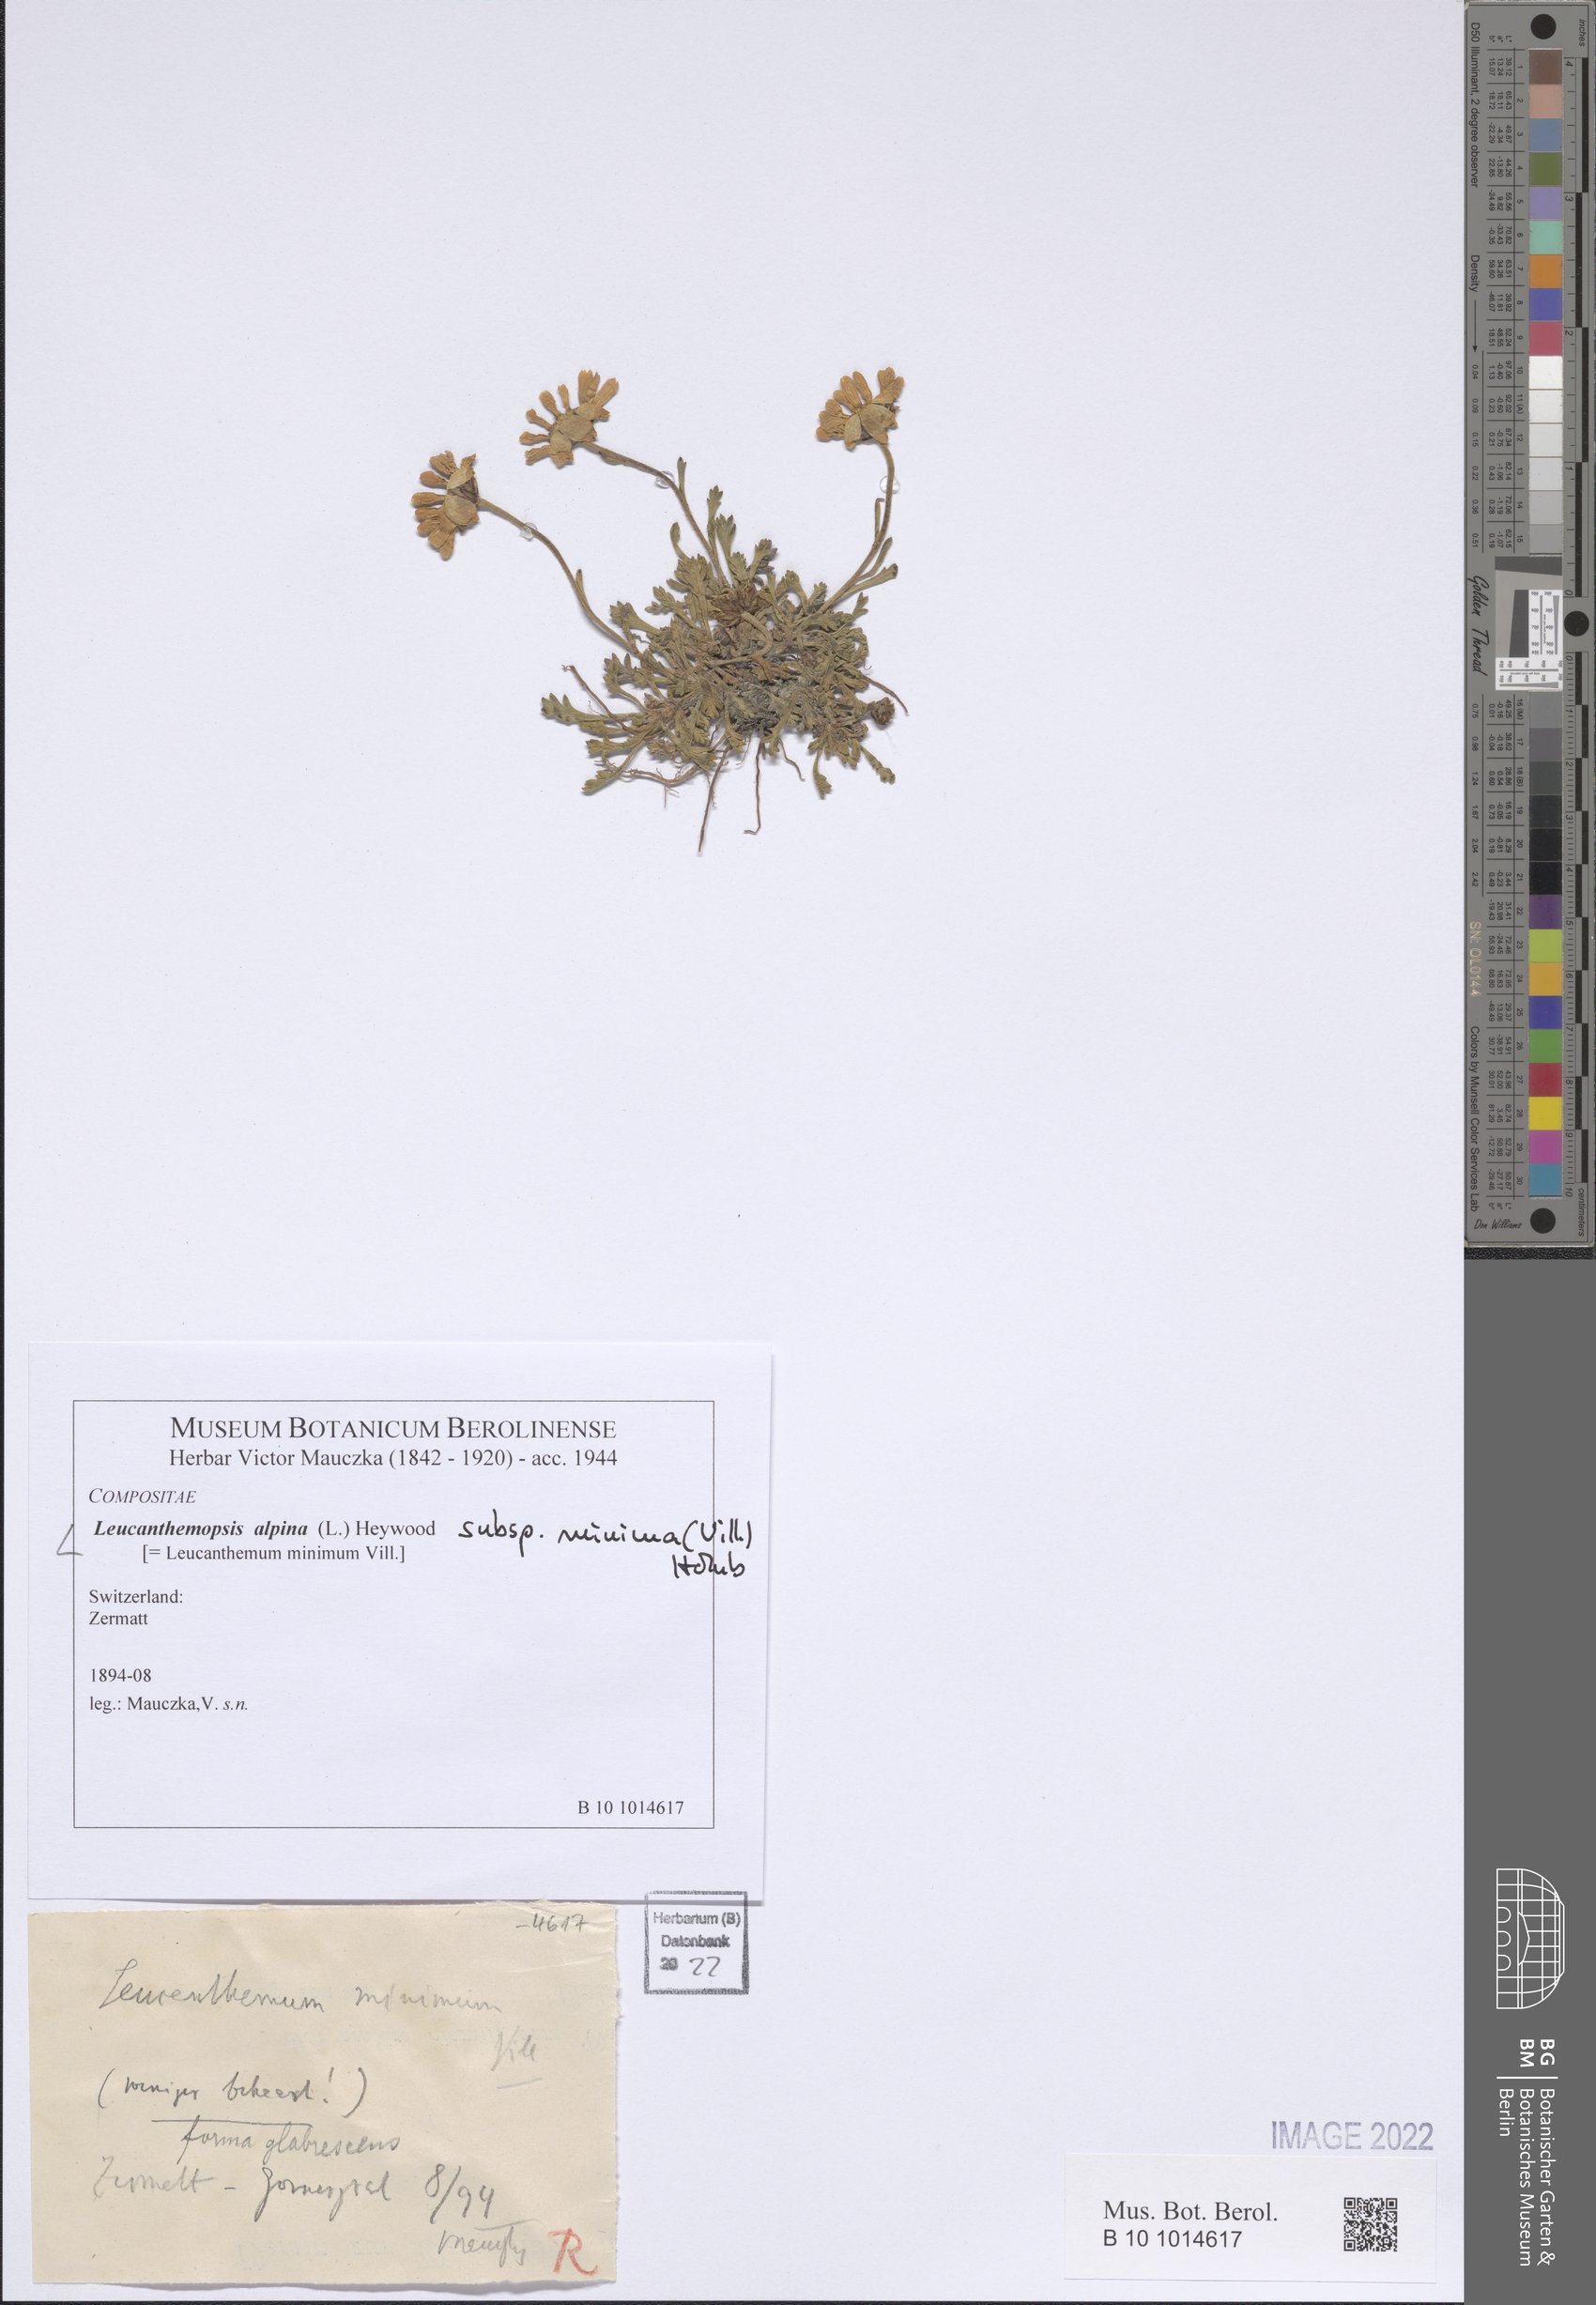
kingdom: Plantae
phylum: Tracheophyta
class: Magnoliopsida
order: Asterales
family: Asteraceae
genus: Leucanthemopsis
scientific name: Leucanthemopsis alpina
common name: Alpine moon daisy
